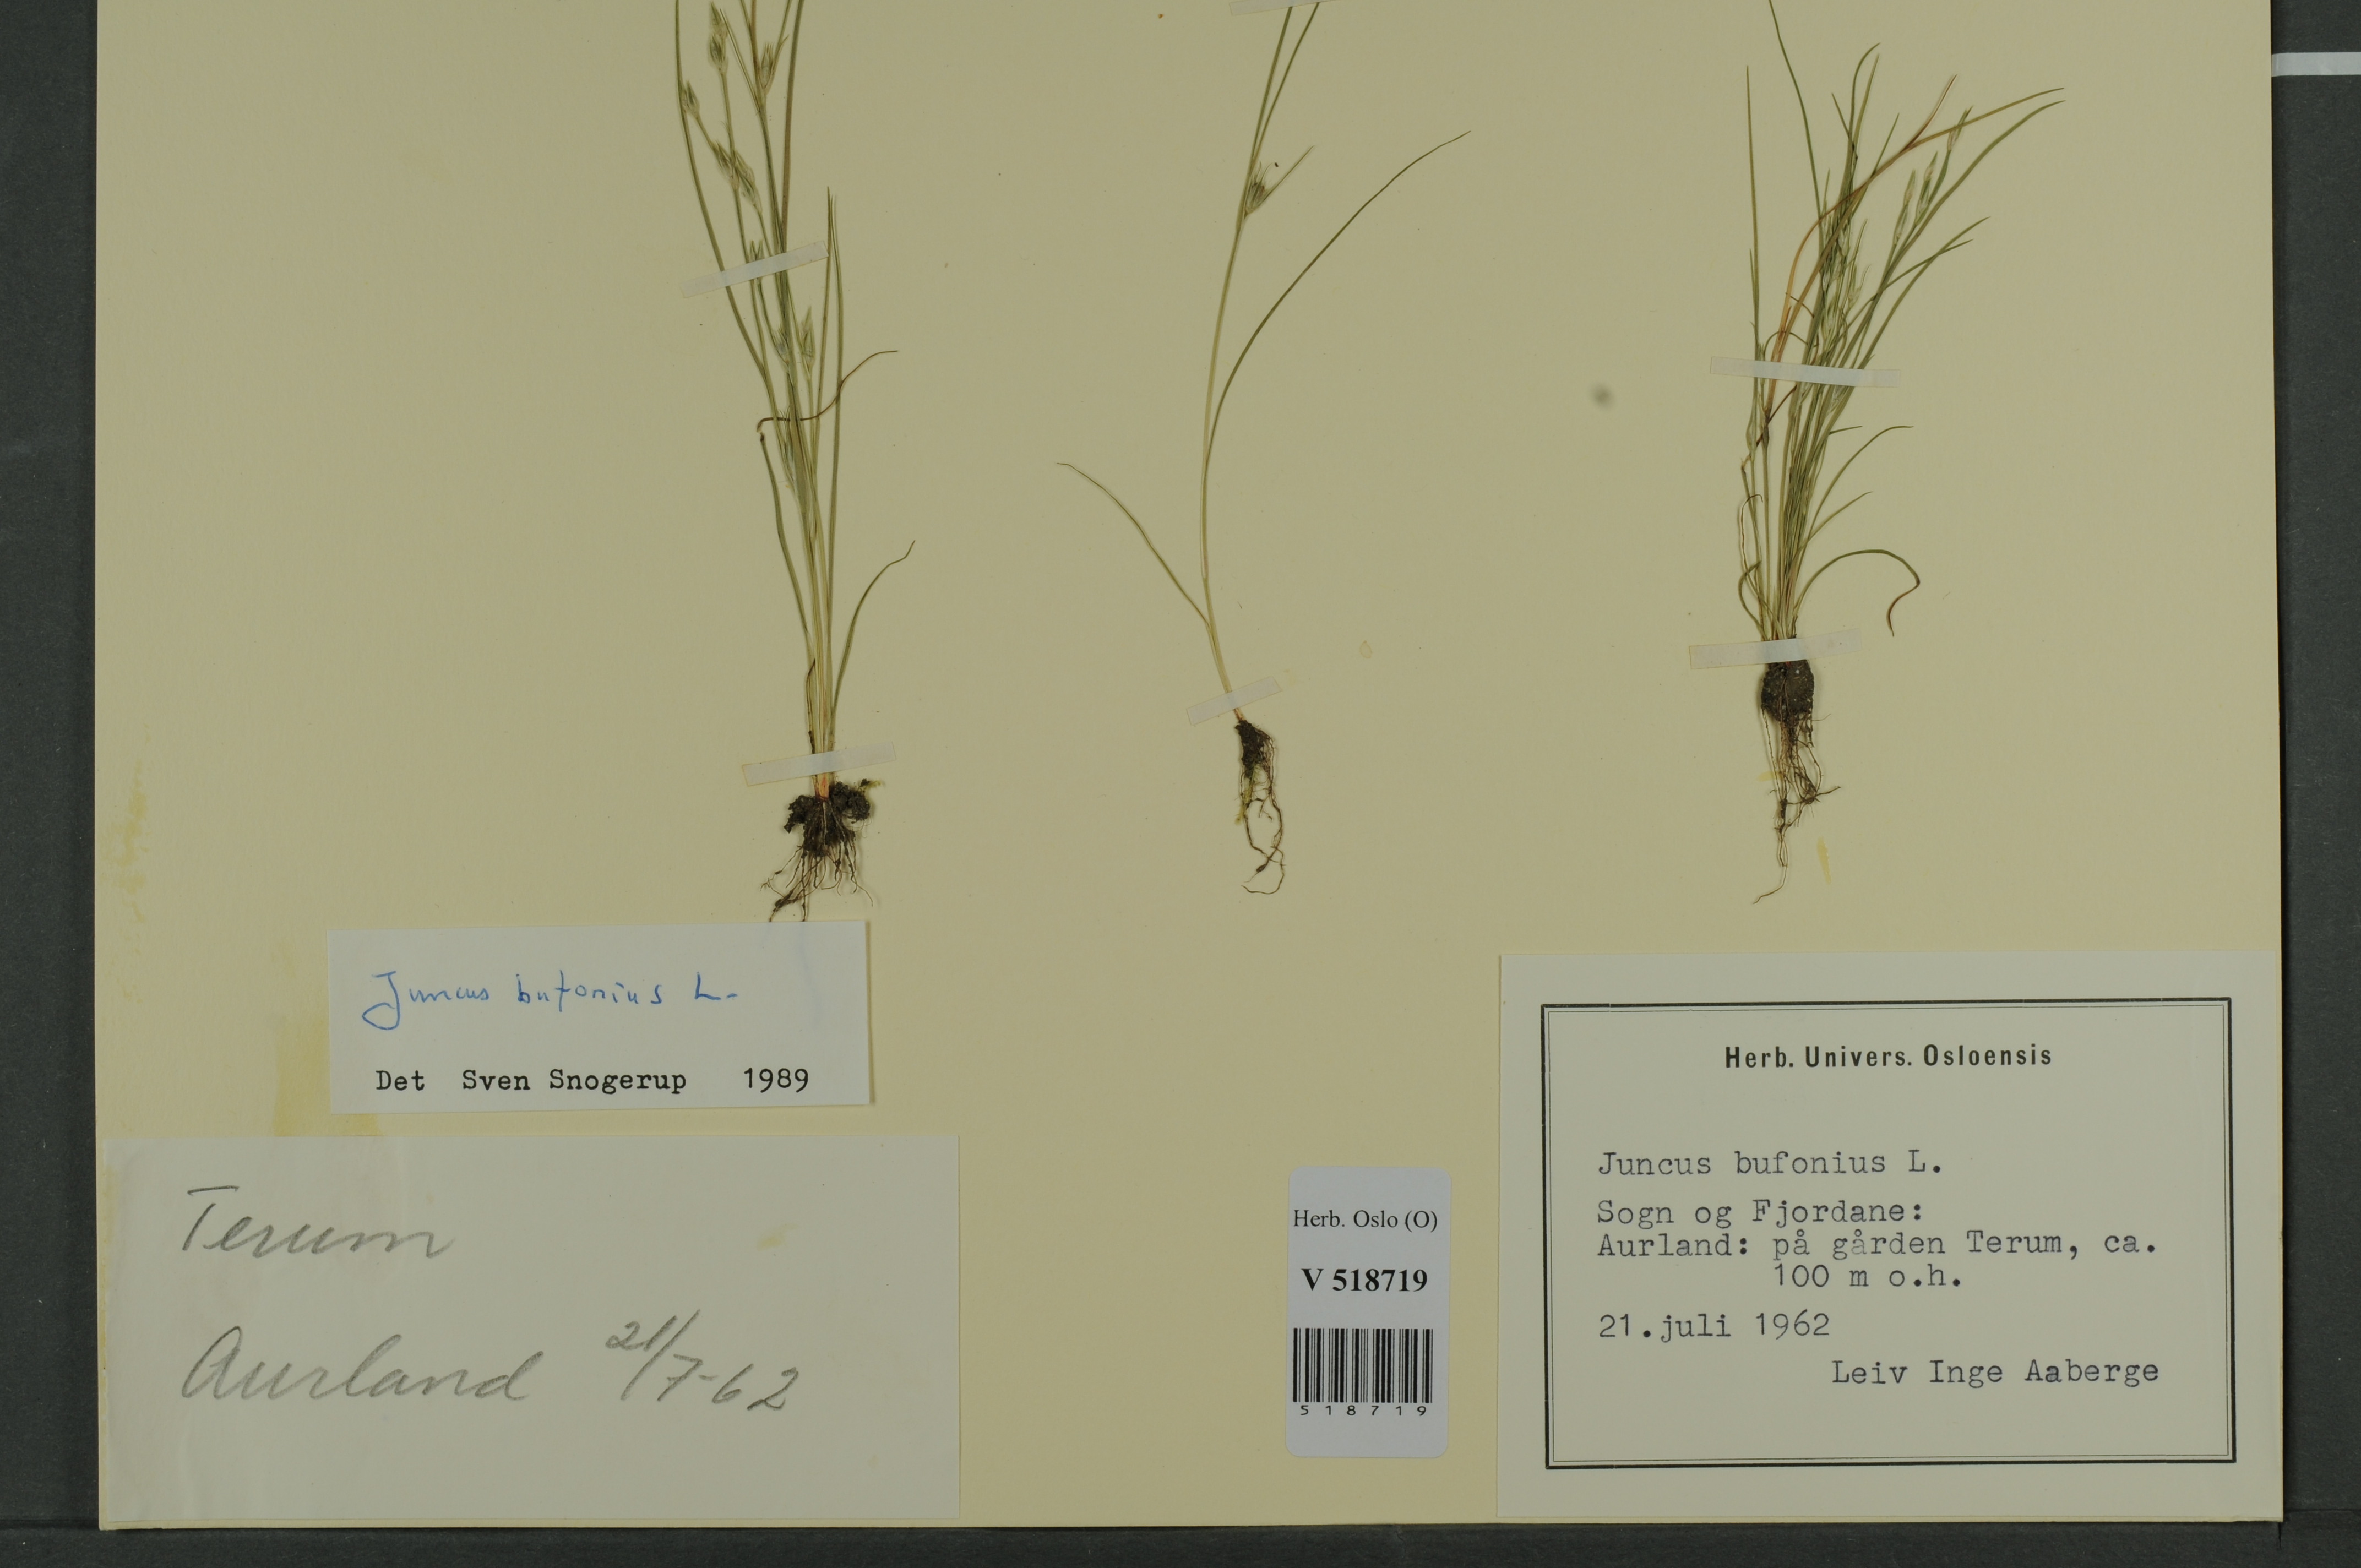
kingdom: Plantae
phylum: Tracheophyta
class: Liliopsida
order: Poales
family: Juncaceae
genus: Juncus
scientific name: Juncus bufonius
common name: Toad rush
